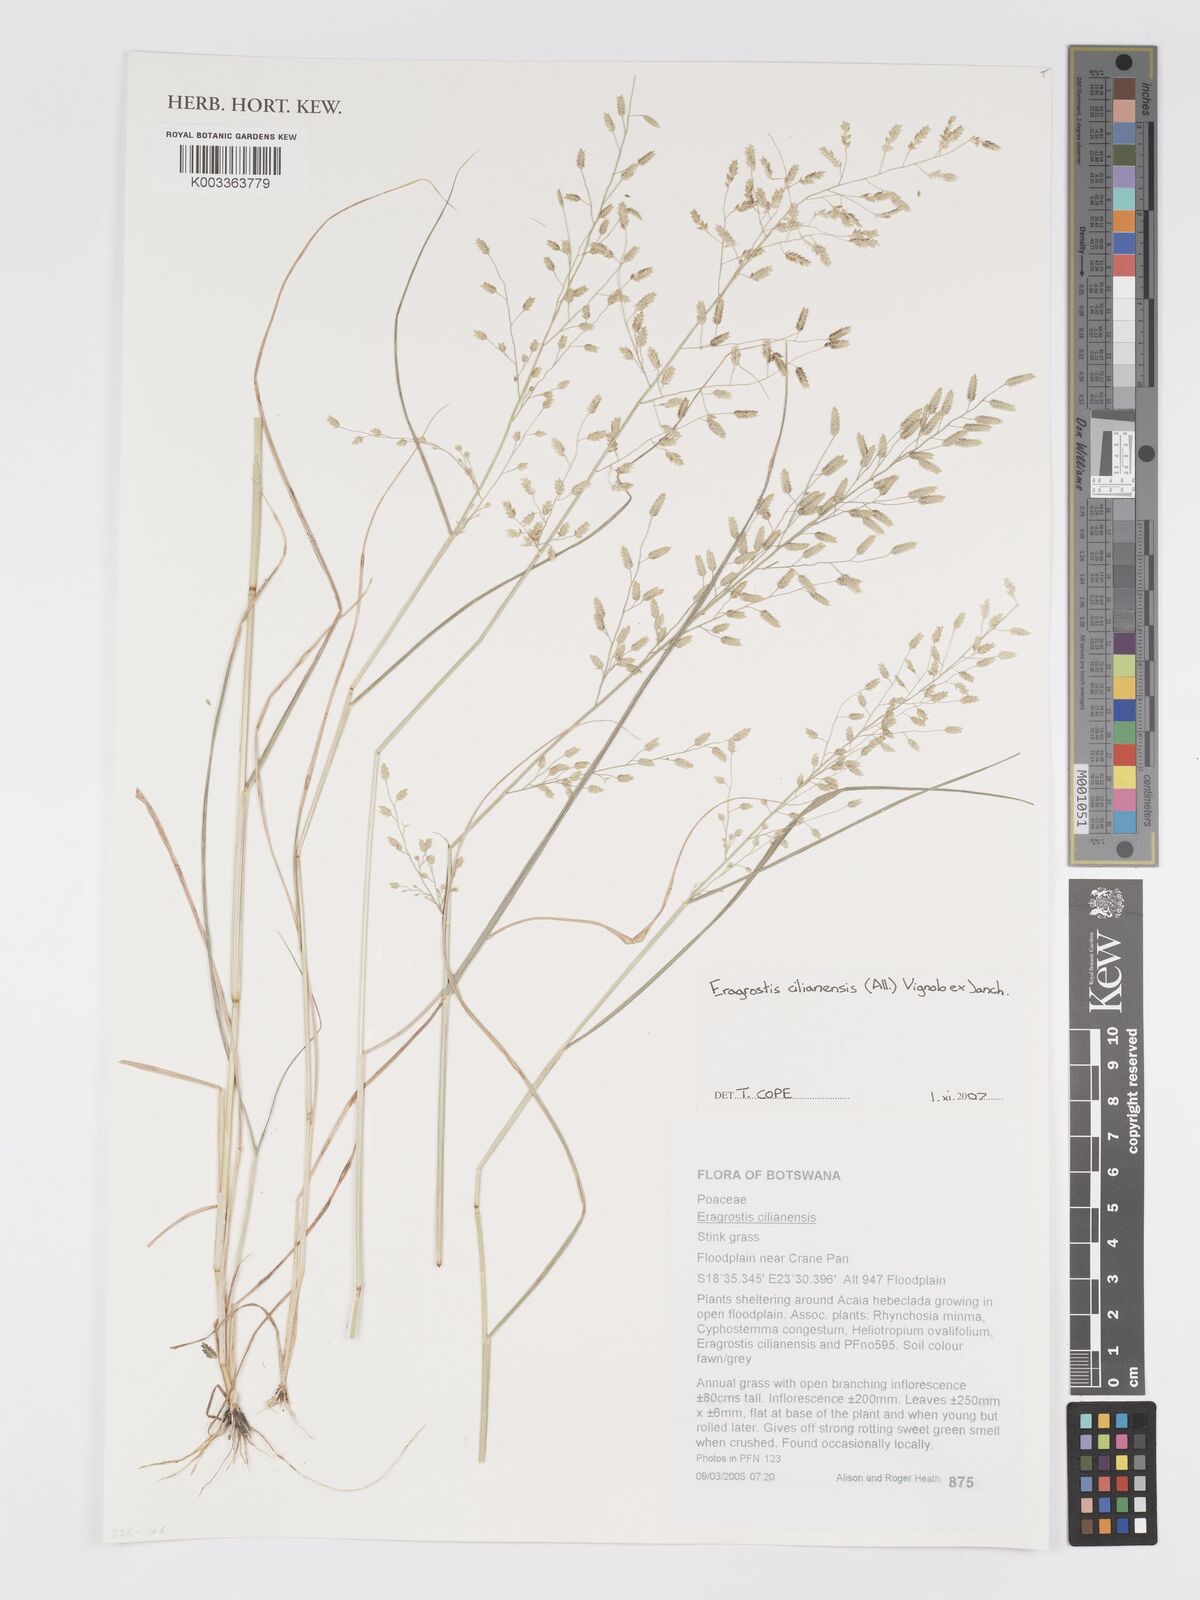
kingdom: Plantae
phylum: Tracheophyta
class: Liliopsida
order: Poales
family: Poaceae
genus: Eragrostis
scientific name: Eragrostis cilianensis
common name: Stinkgrass
